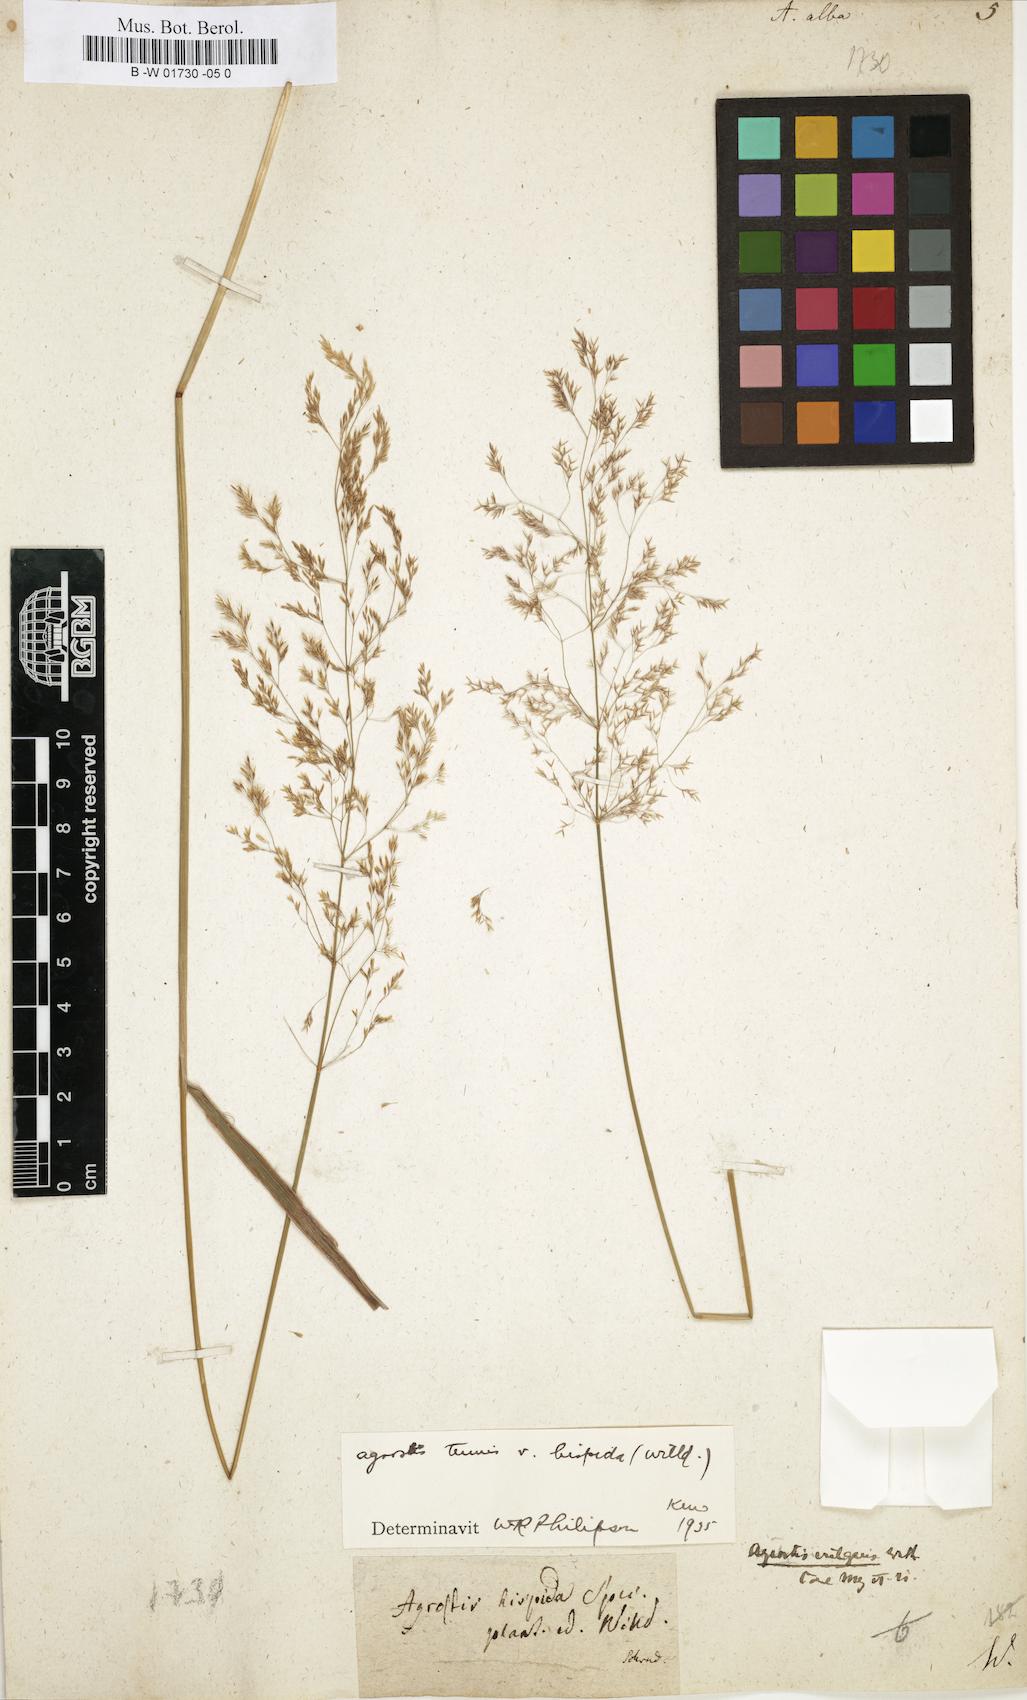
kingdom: Plantae
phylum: Tracheophyta
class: Liliopsida
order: Poales
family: Poaceae
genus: Poa
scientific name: Poa nemoralis
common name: Wood bluegrass
